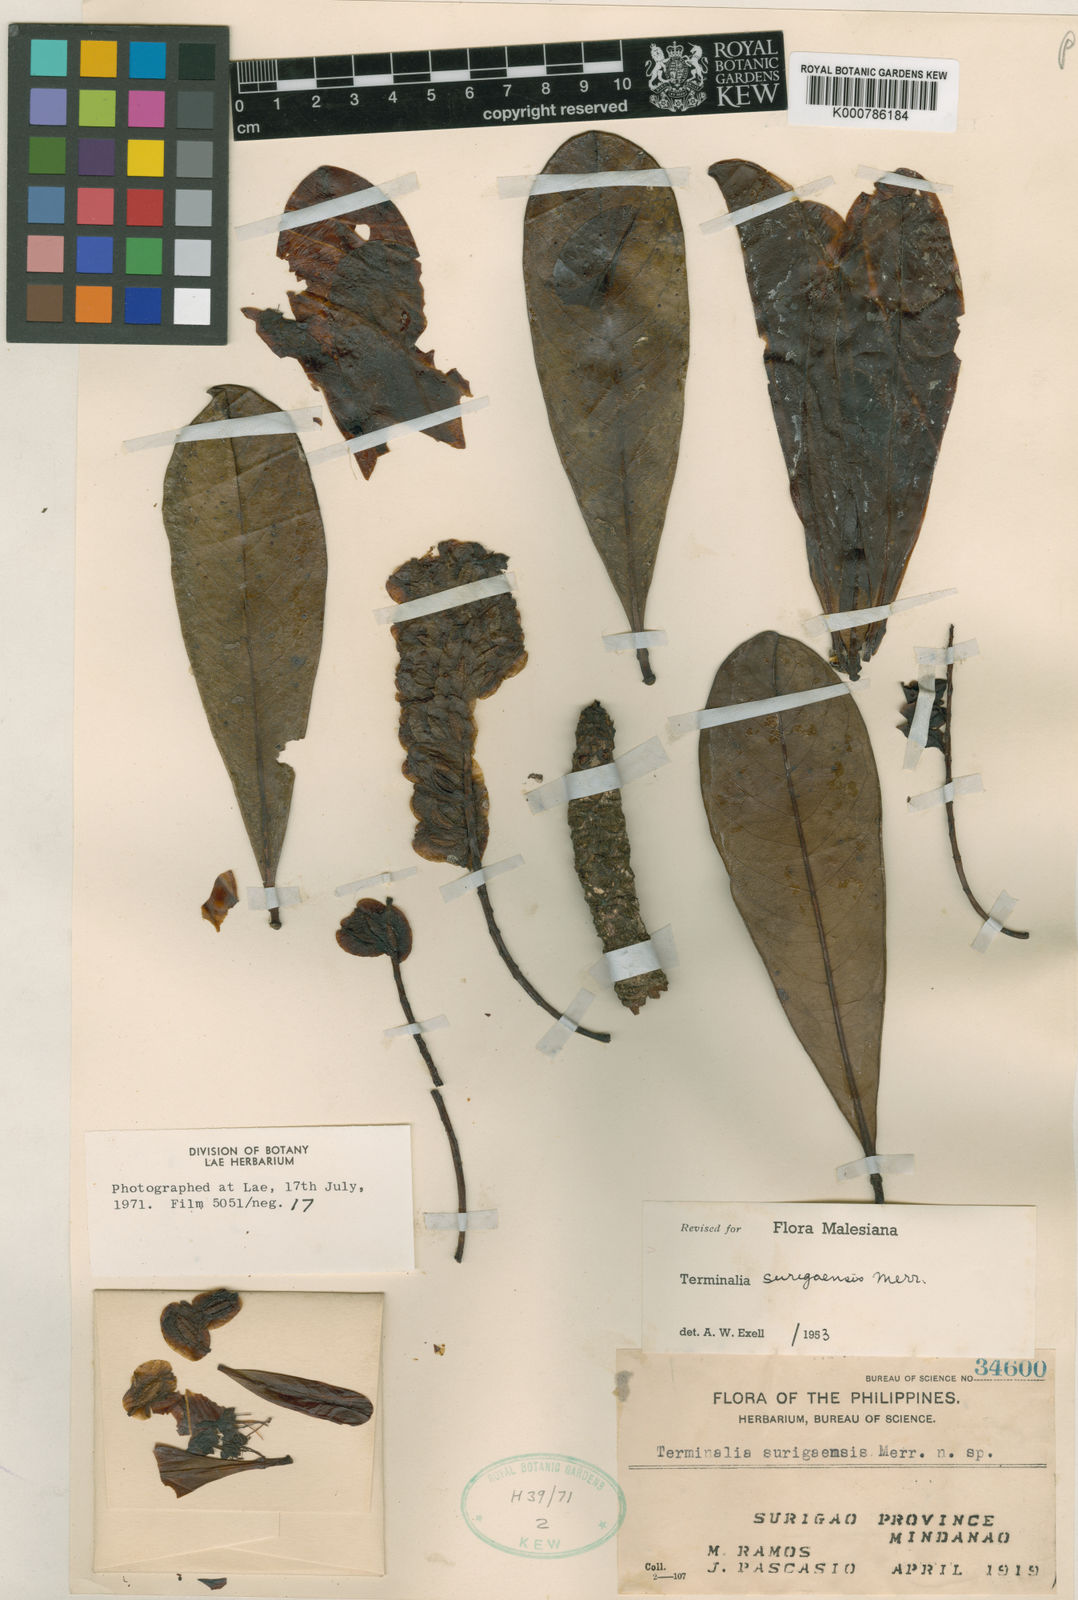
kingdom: Plantae
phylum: Tracheophyta
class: Magnoliopsida
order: Myrtales
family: Combretaceae
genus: Terminalia
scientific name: Terminalia surigaensis
